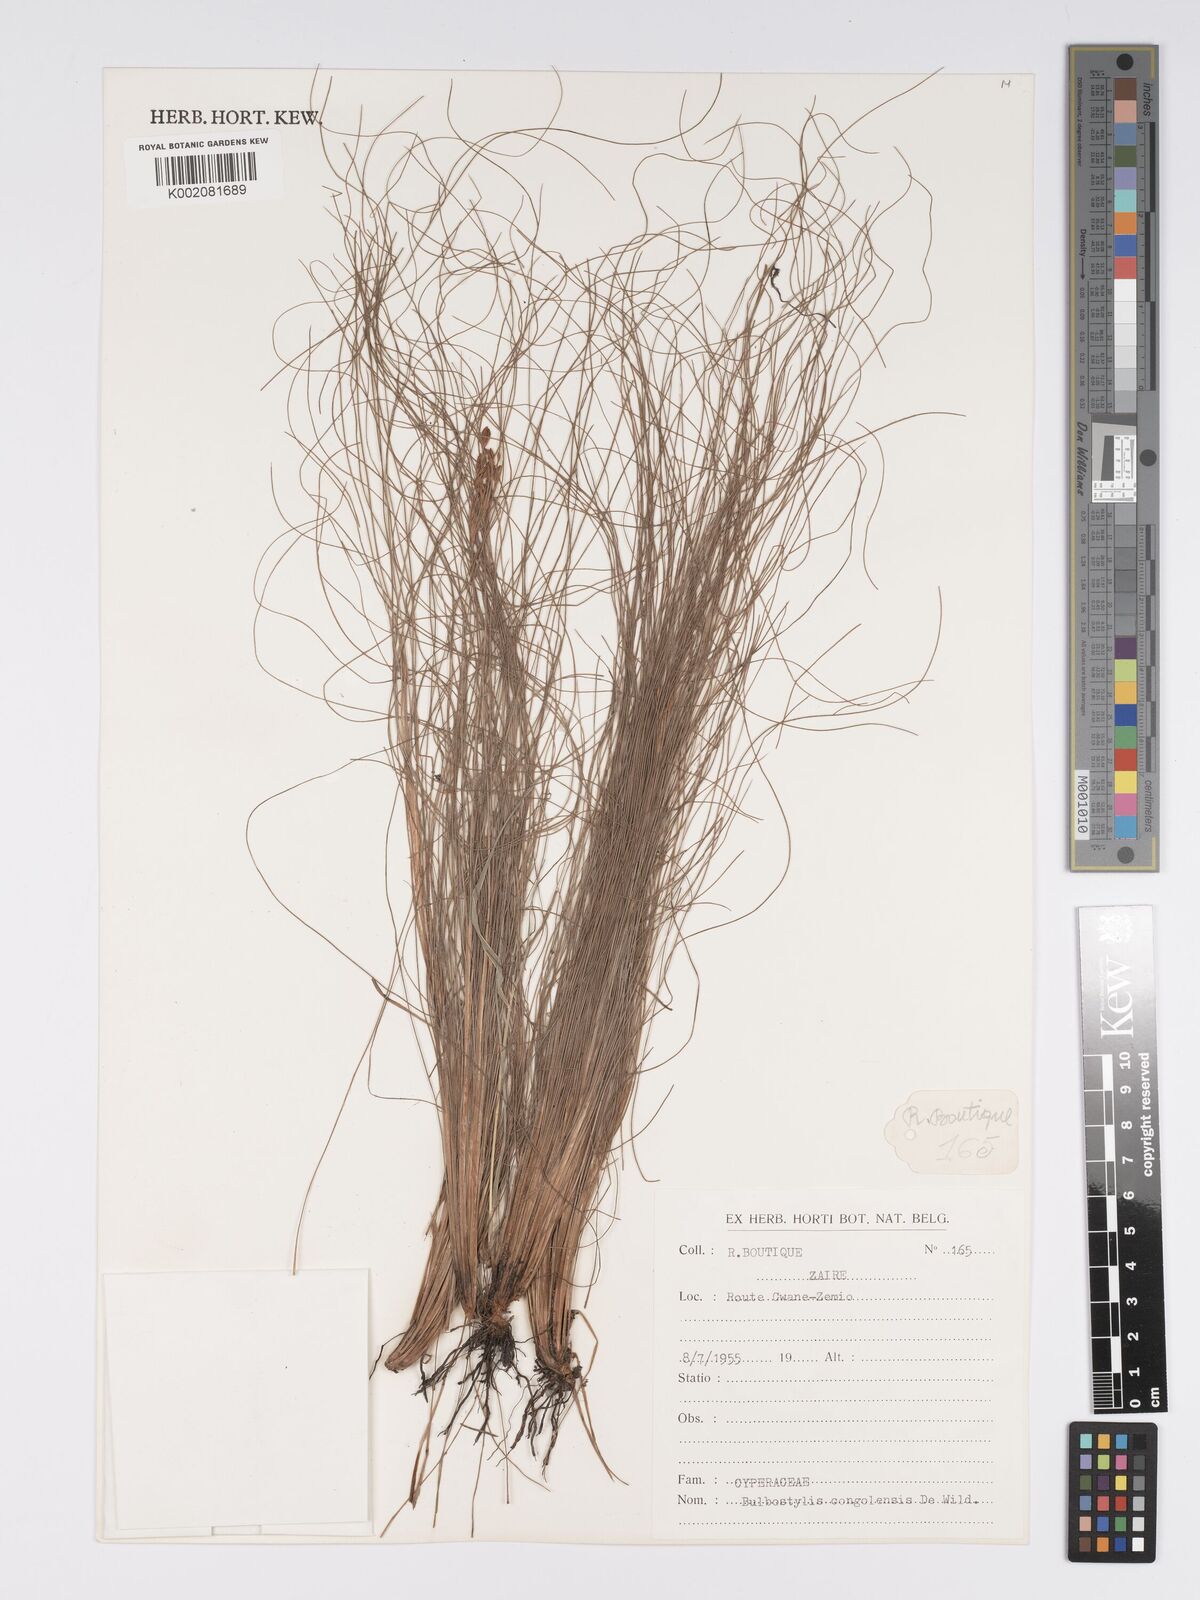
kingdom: Plantae
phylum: Tracheophyta
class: Liliopsida
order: Poales
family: Cyperaceae
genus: Bulbostylis
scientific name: Bulbostylis abortiva
